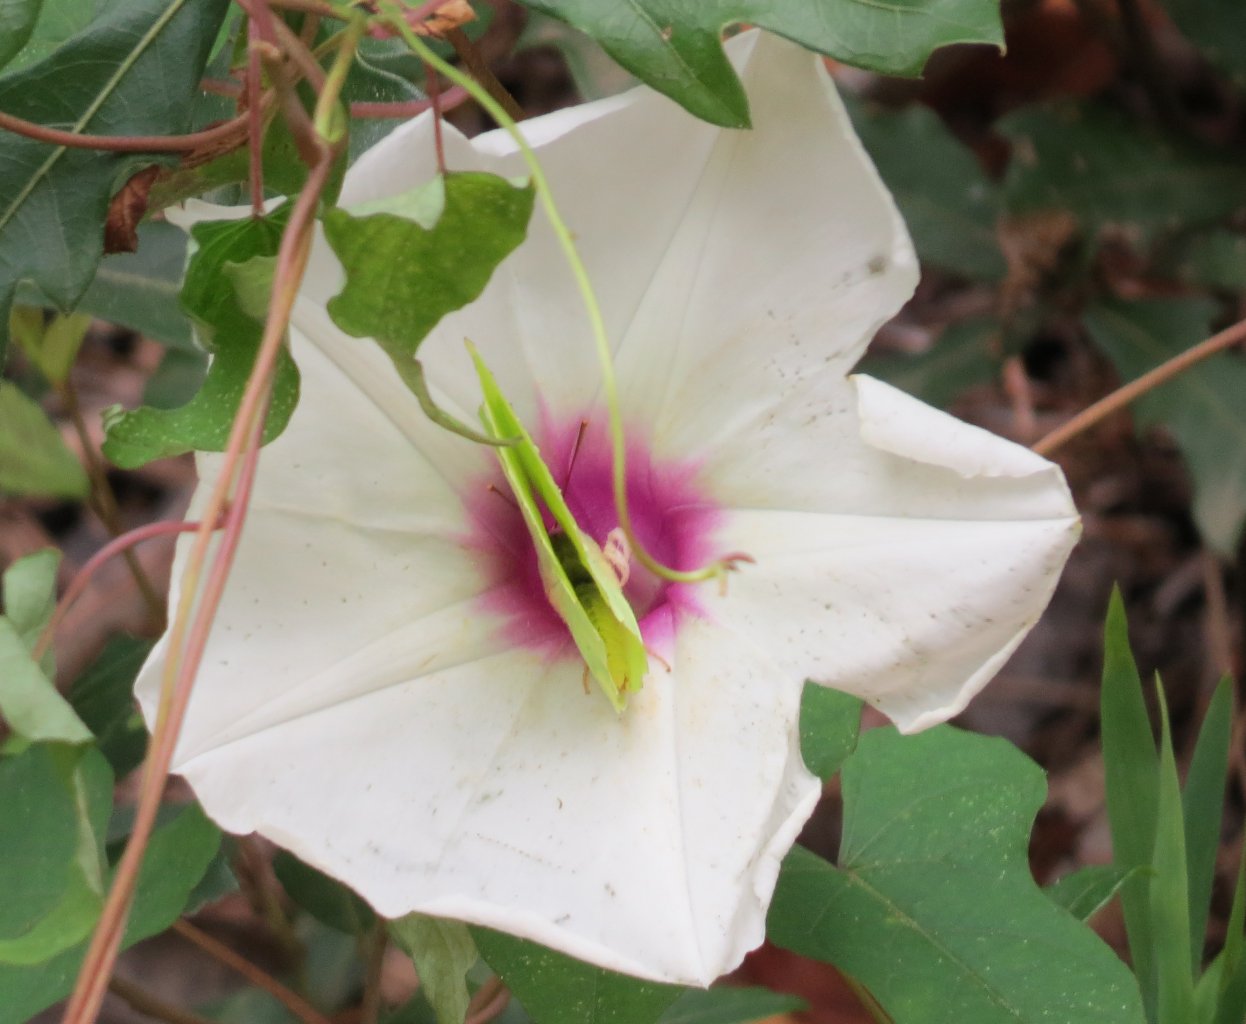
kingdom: Animalia
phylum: Arthropoda
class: Insecta
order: Lepidoptera
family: Pieridae
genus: Phoebis
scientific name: Phoebis sennae
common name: Cloudless Sulphur
